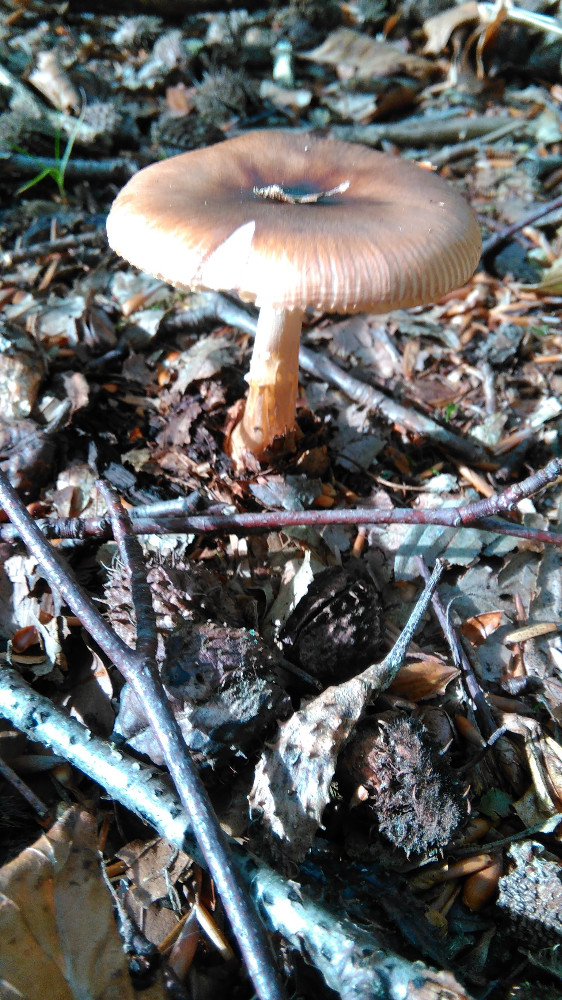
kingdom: Fungi
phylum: Basidiomycota
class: Agaricomycetes
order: Agaricales
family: Amanitaceae
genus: Amanita
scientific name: Amanita fulva
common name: brun kam-fluesvamp
